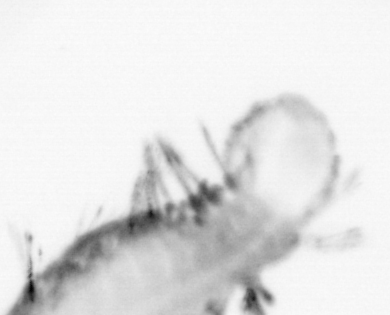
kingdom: Animalia
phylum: Arthropoda
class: Copepoda
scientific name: Copepoda
